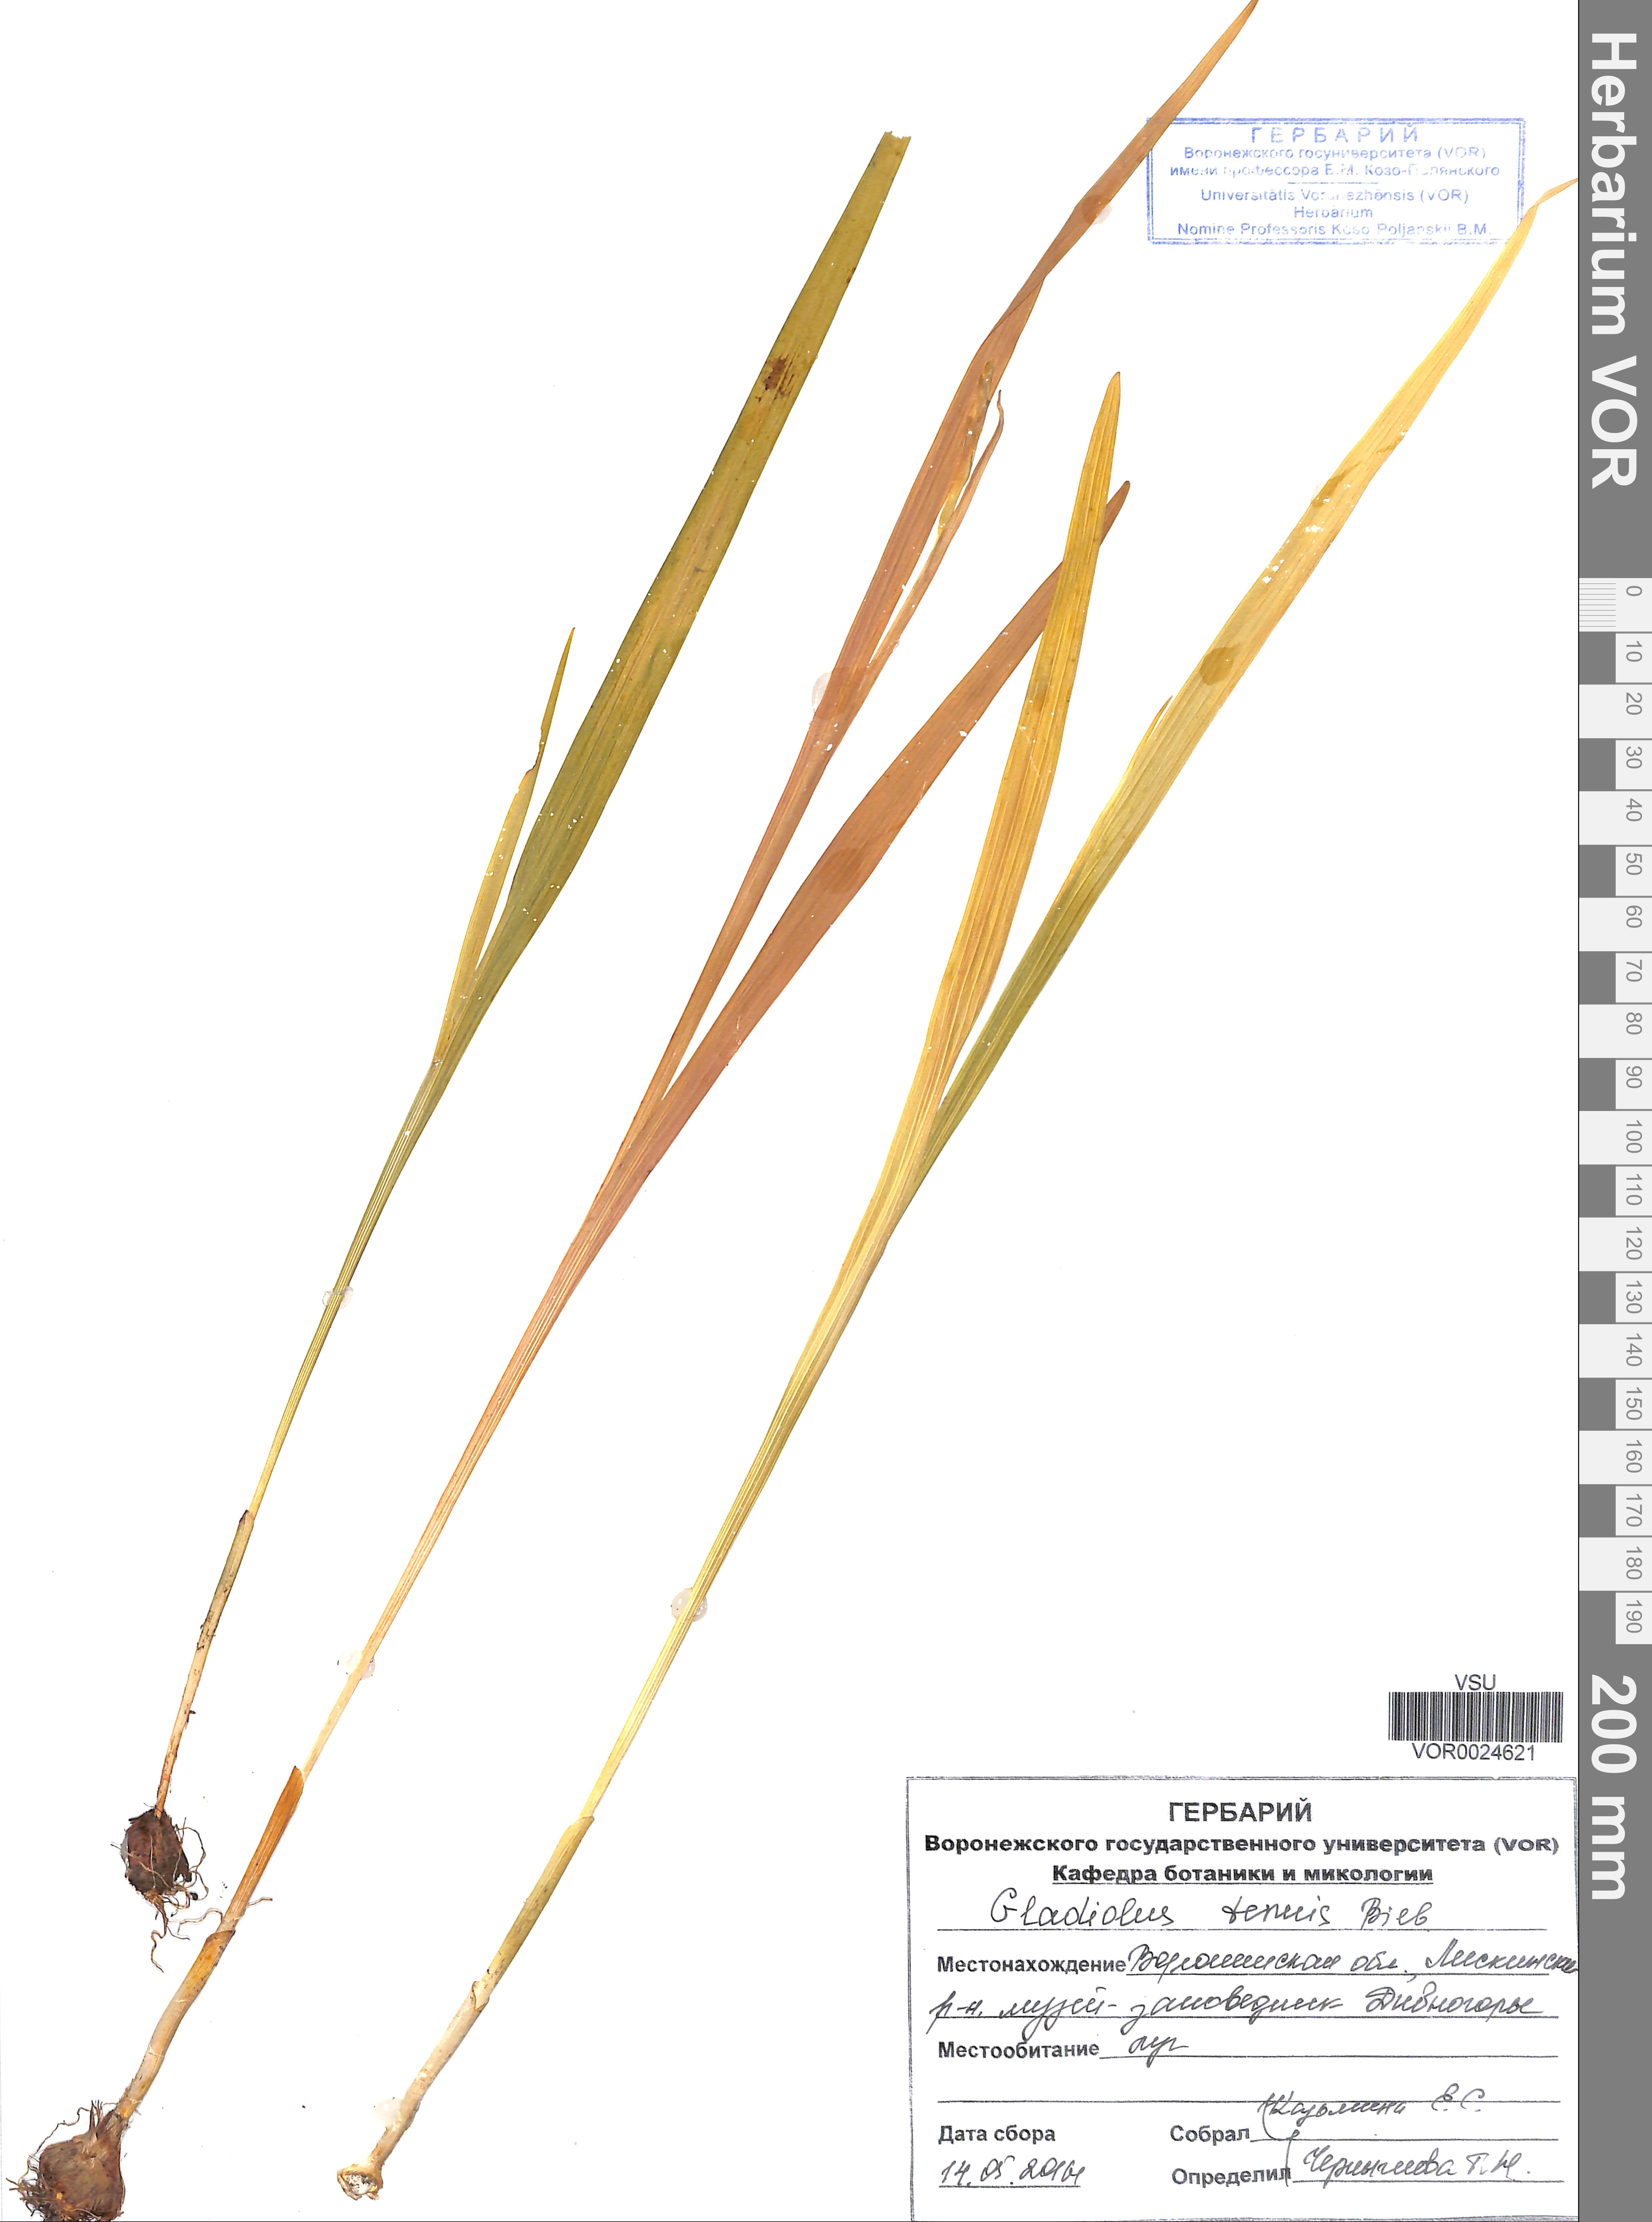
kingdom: Plantae
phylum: Tracheophyta
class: Liliopsida
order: Asparagales
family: Iridaceae
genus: Gladiolus
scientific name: Gladiolus tenuis
